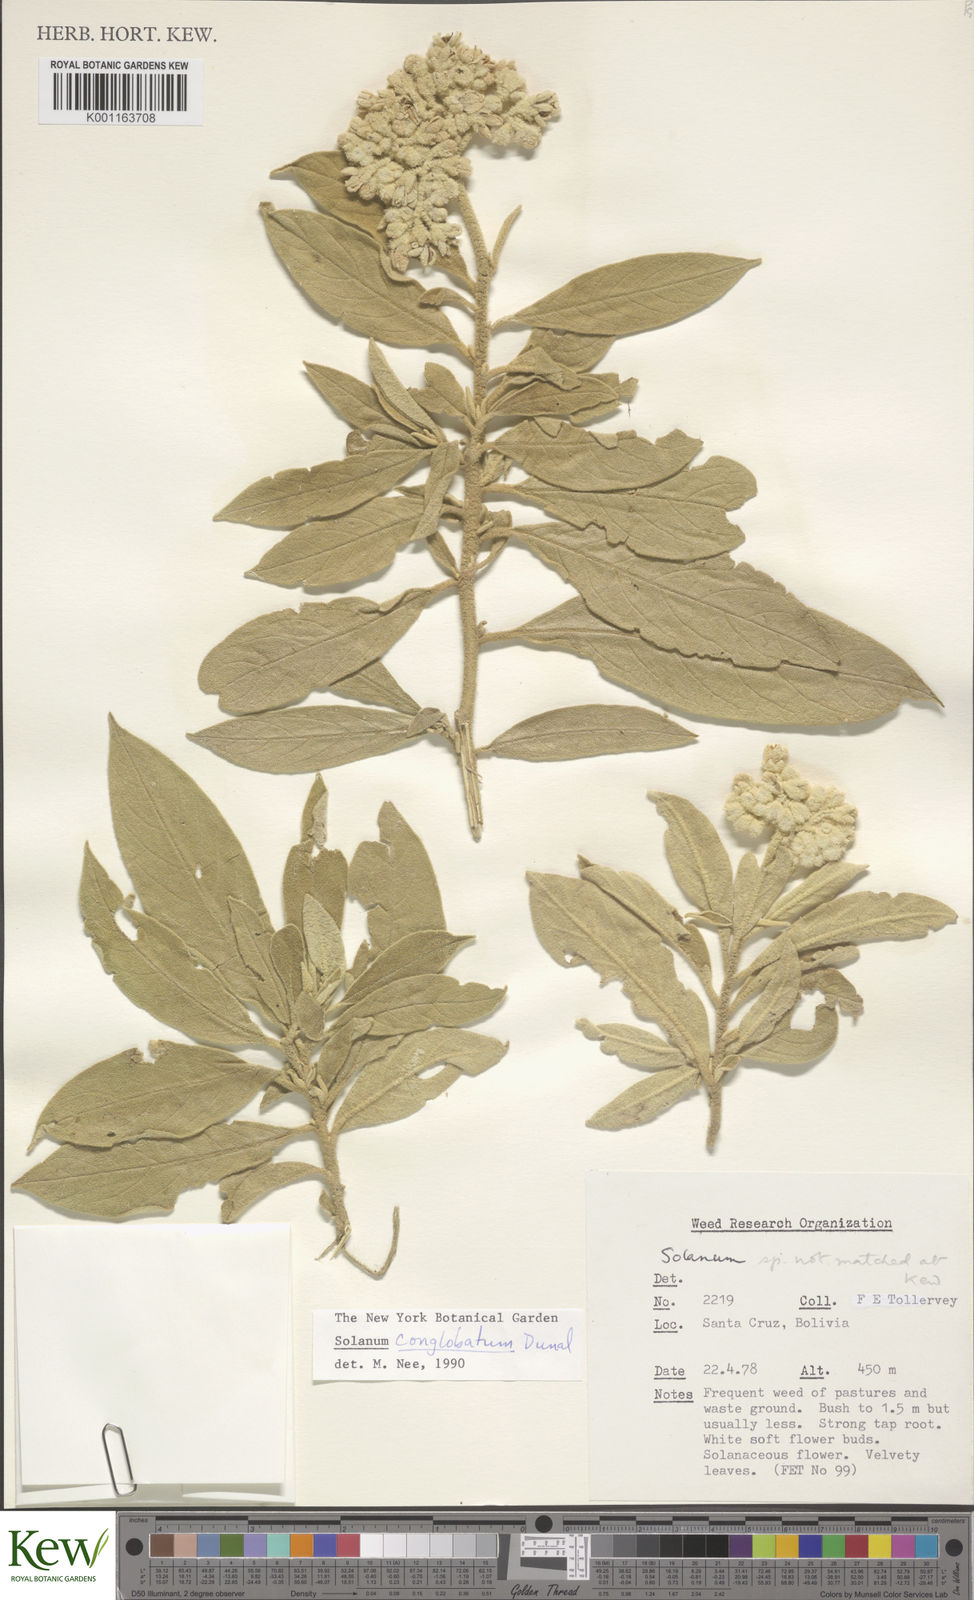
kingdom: Plantae
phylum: Tracheophyta
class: Magnoliopsida
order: Solanales
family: Solanaceae
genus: Solanum
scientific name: Solanum conglobatum
